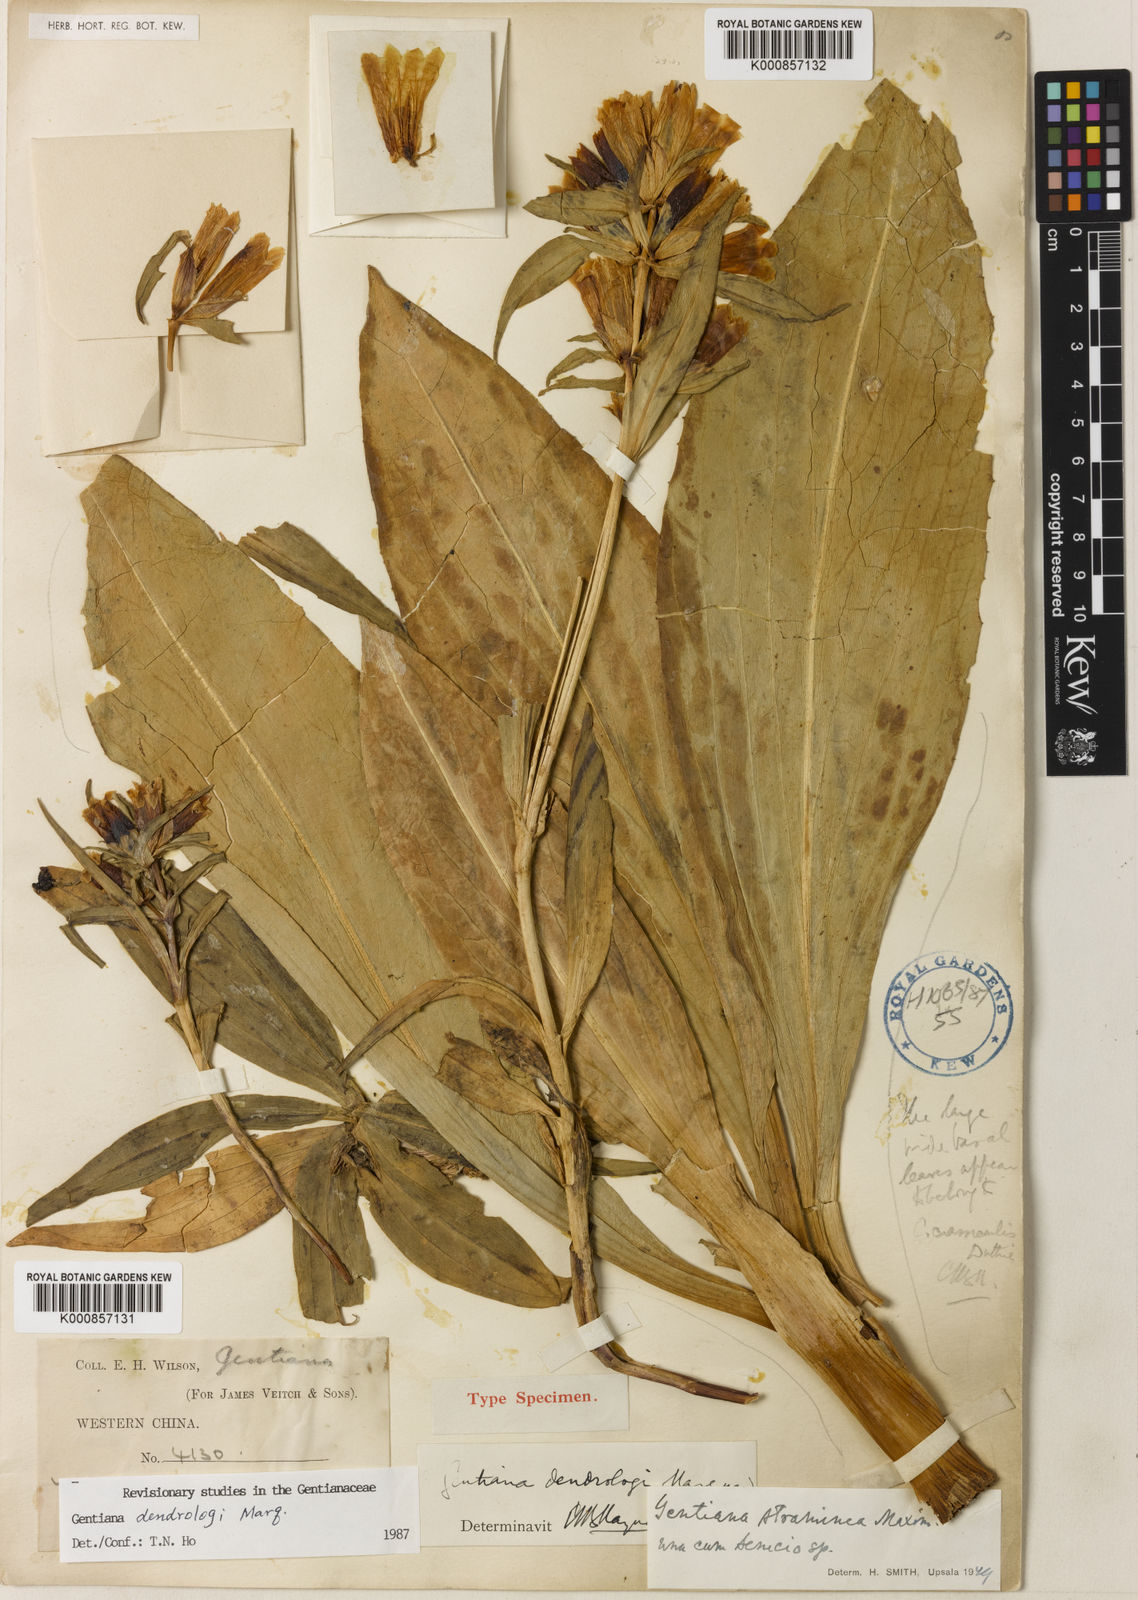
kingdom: Plantae
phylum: Tracheophyta
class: Magnoliopsida
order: Gentianales
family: Gentianaceae
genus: Gentiana
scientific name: Gentiana dendrologi
